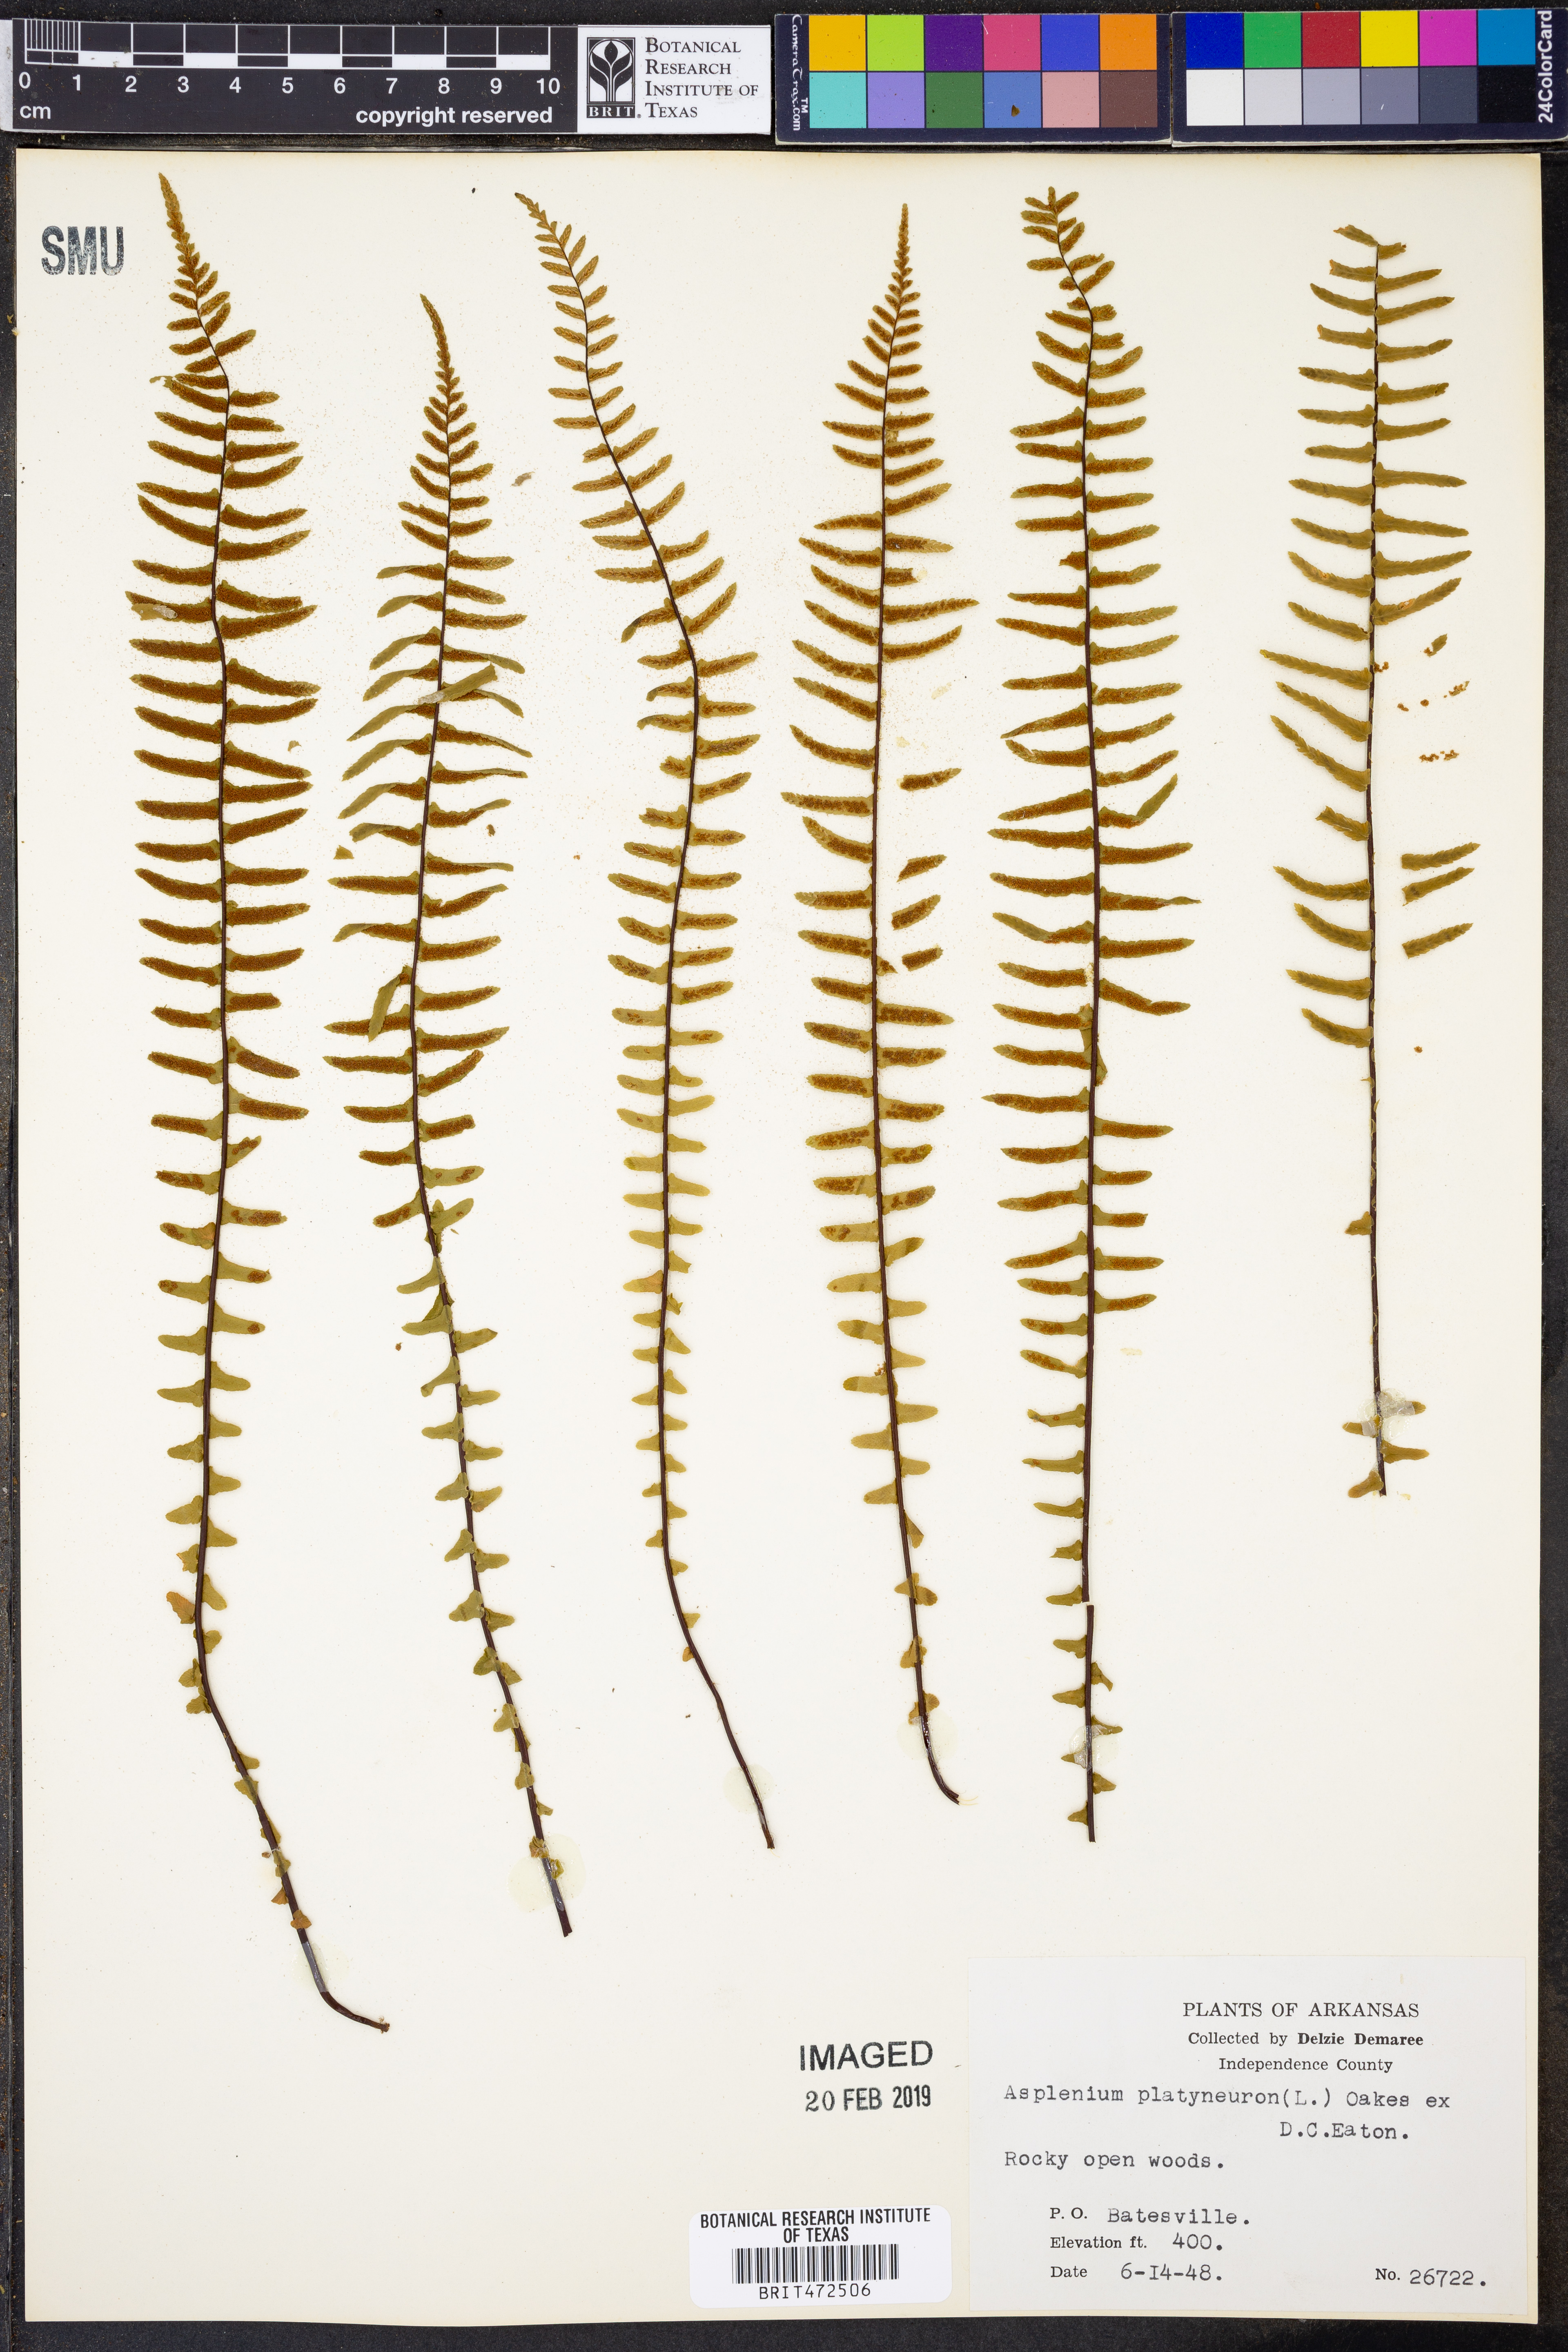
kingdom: Plantae
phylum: Tracheophyta
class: Polypodiopsida
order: Polypodiales
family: Aspleniaceae
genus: Asplenium
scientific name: Asplenium platyneuron
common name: Ebony spleenwort
